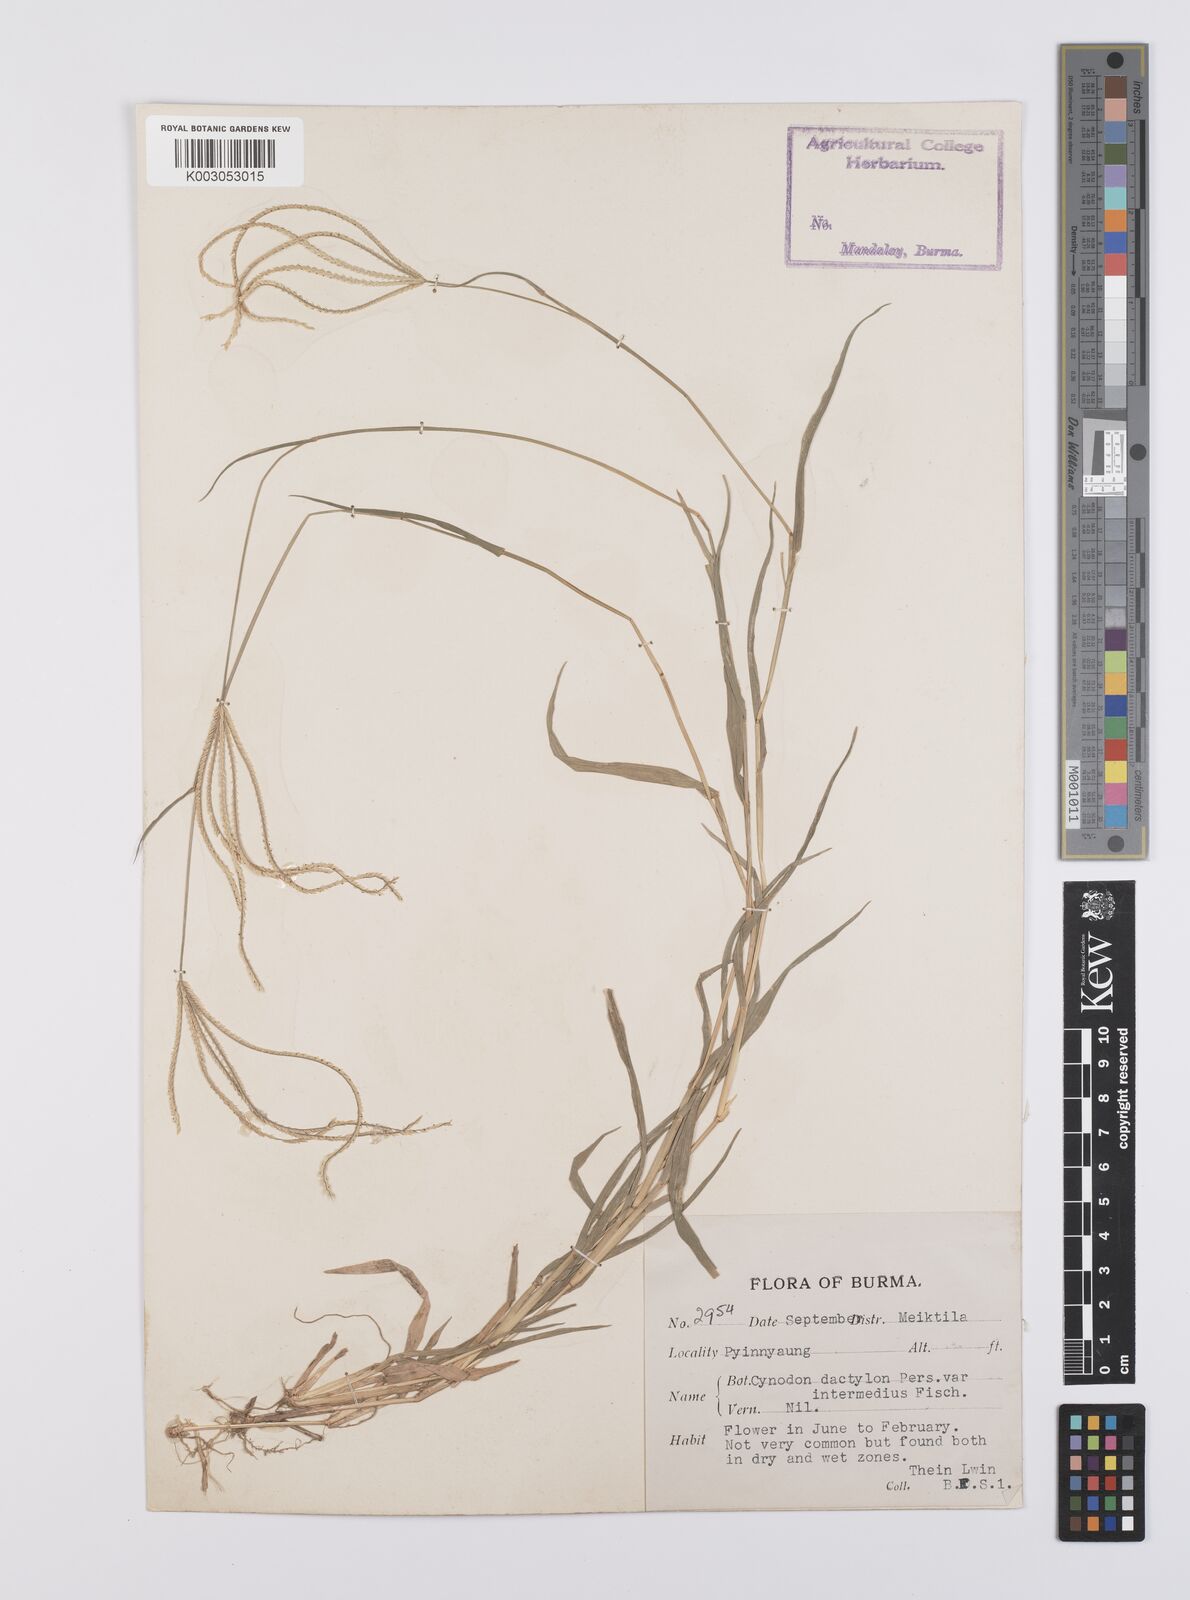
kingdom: Plantae
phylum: Tracheophyta
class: Liliopsida
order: Poales
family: Poaceae
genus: Cynodon
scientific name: Cynodon radiatus
